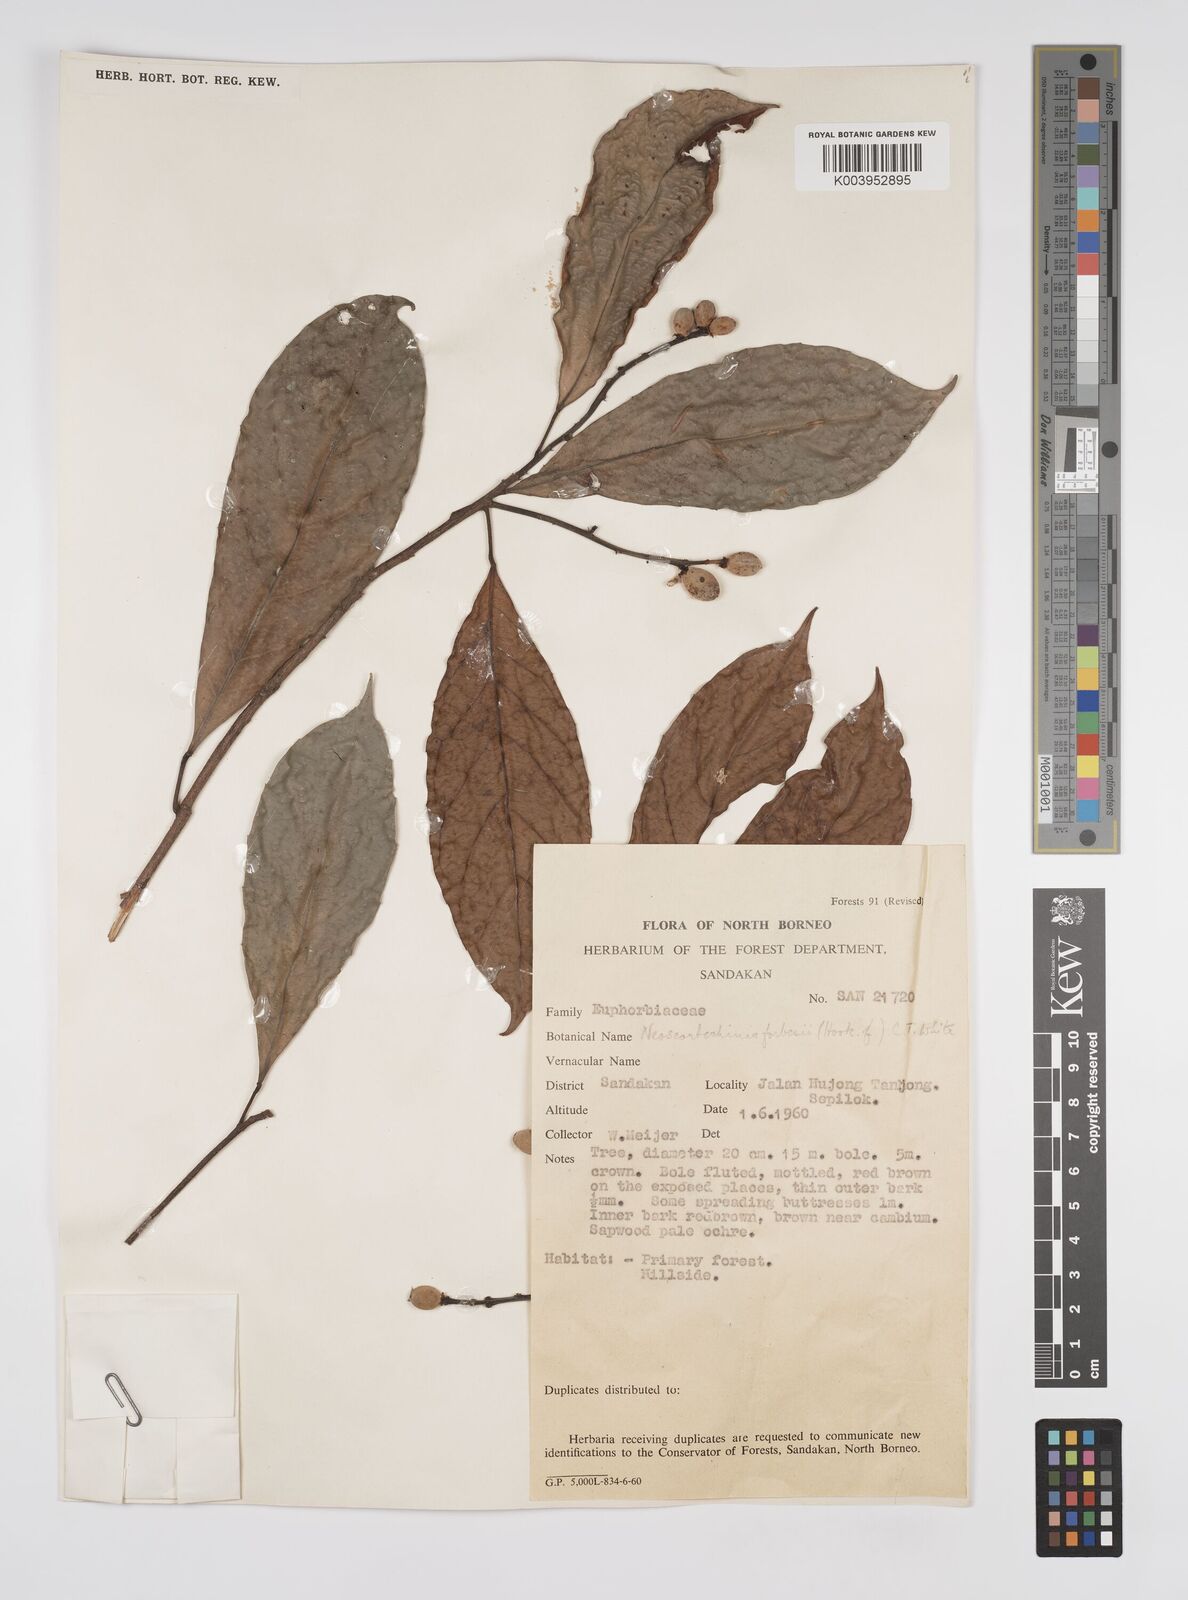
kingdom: Plantae
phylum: Tracheophyta
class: Magnoliopsida
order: Malpighiales
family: Euphorbiaceae
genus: Neoscortechinia
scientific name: Neoscortechinia philippinensis
